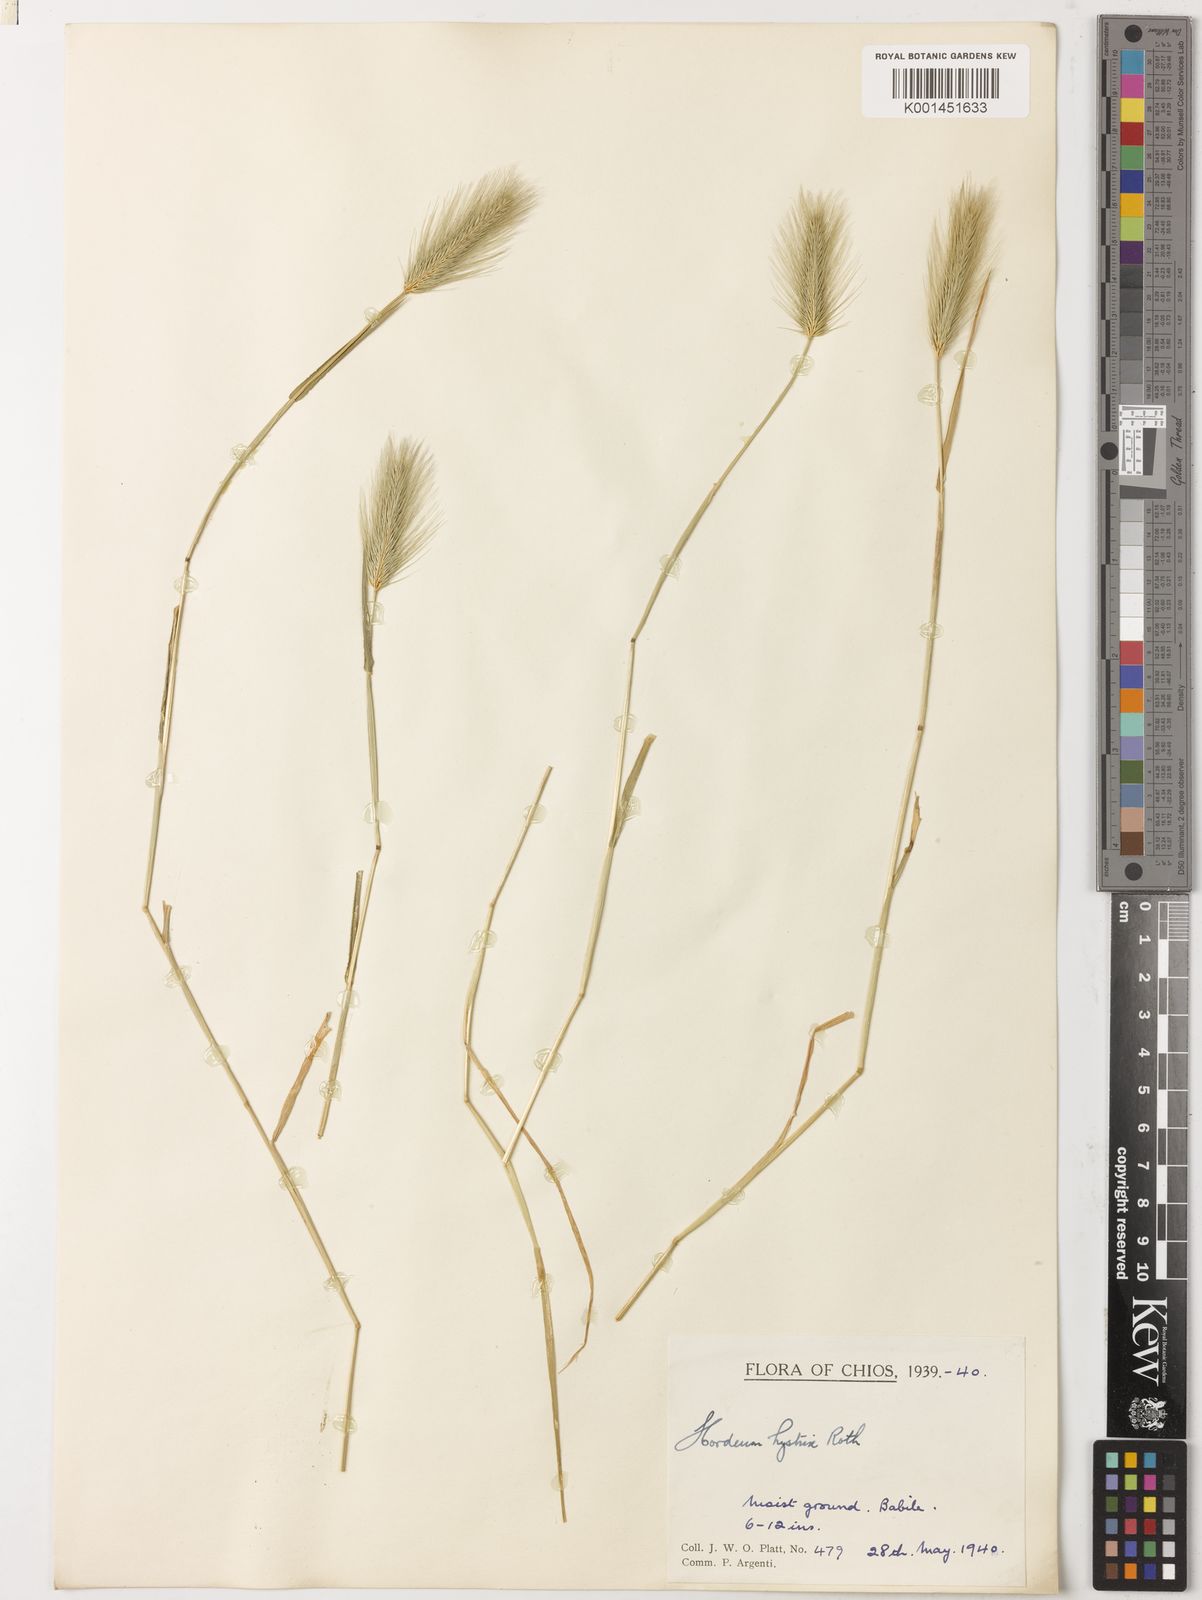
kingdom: Plantae
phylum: Tracheophyta
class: Liliopsida
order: Poales
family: Poaceae
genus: Hordeum
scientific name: Hordeum marinum
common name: Sea barley
